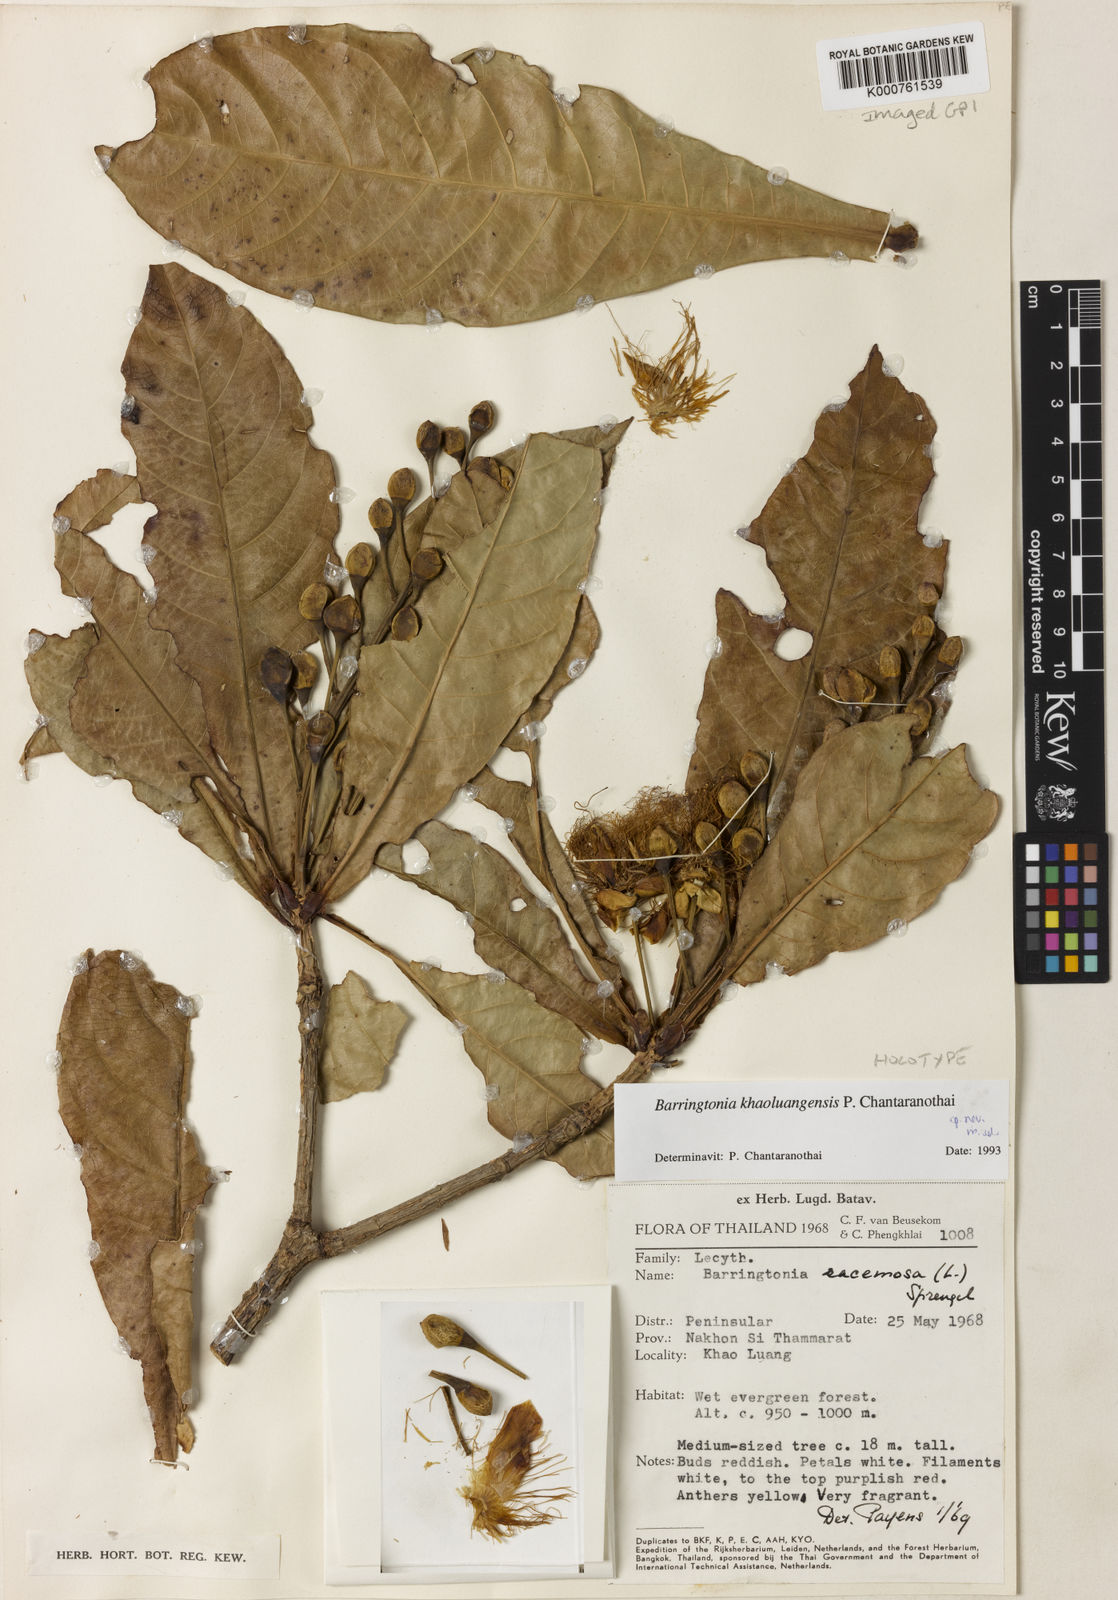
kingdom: Plantae
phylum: Tracheophyta
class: Magnoliopsida
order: Ericales
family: Lecythidaceae
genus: Barringtonia
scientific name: Barringtonia khaoluangensis
